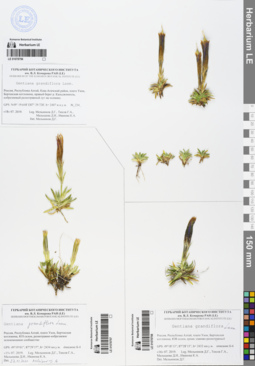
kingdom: Plantae
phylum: Tracheophyta
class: Magnoliopsida
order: Gentianales
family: Gentianaceae
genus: Gentiana
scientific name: Gentiana grandiflora
